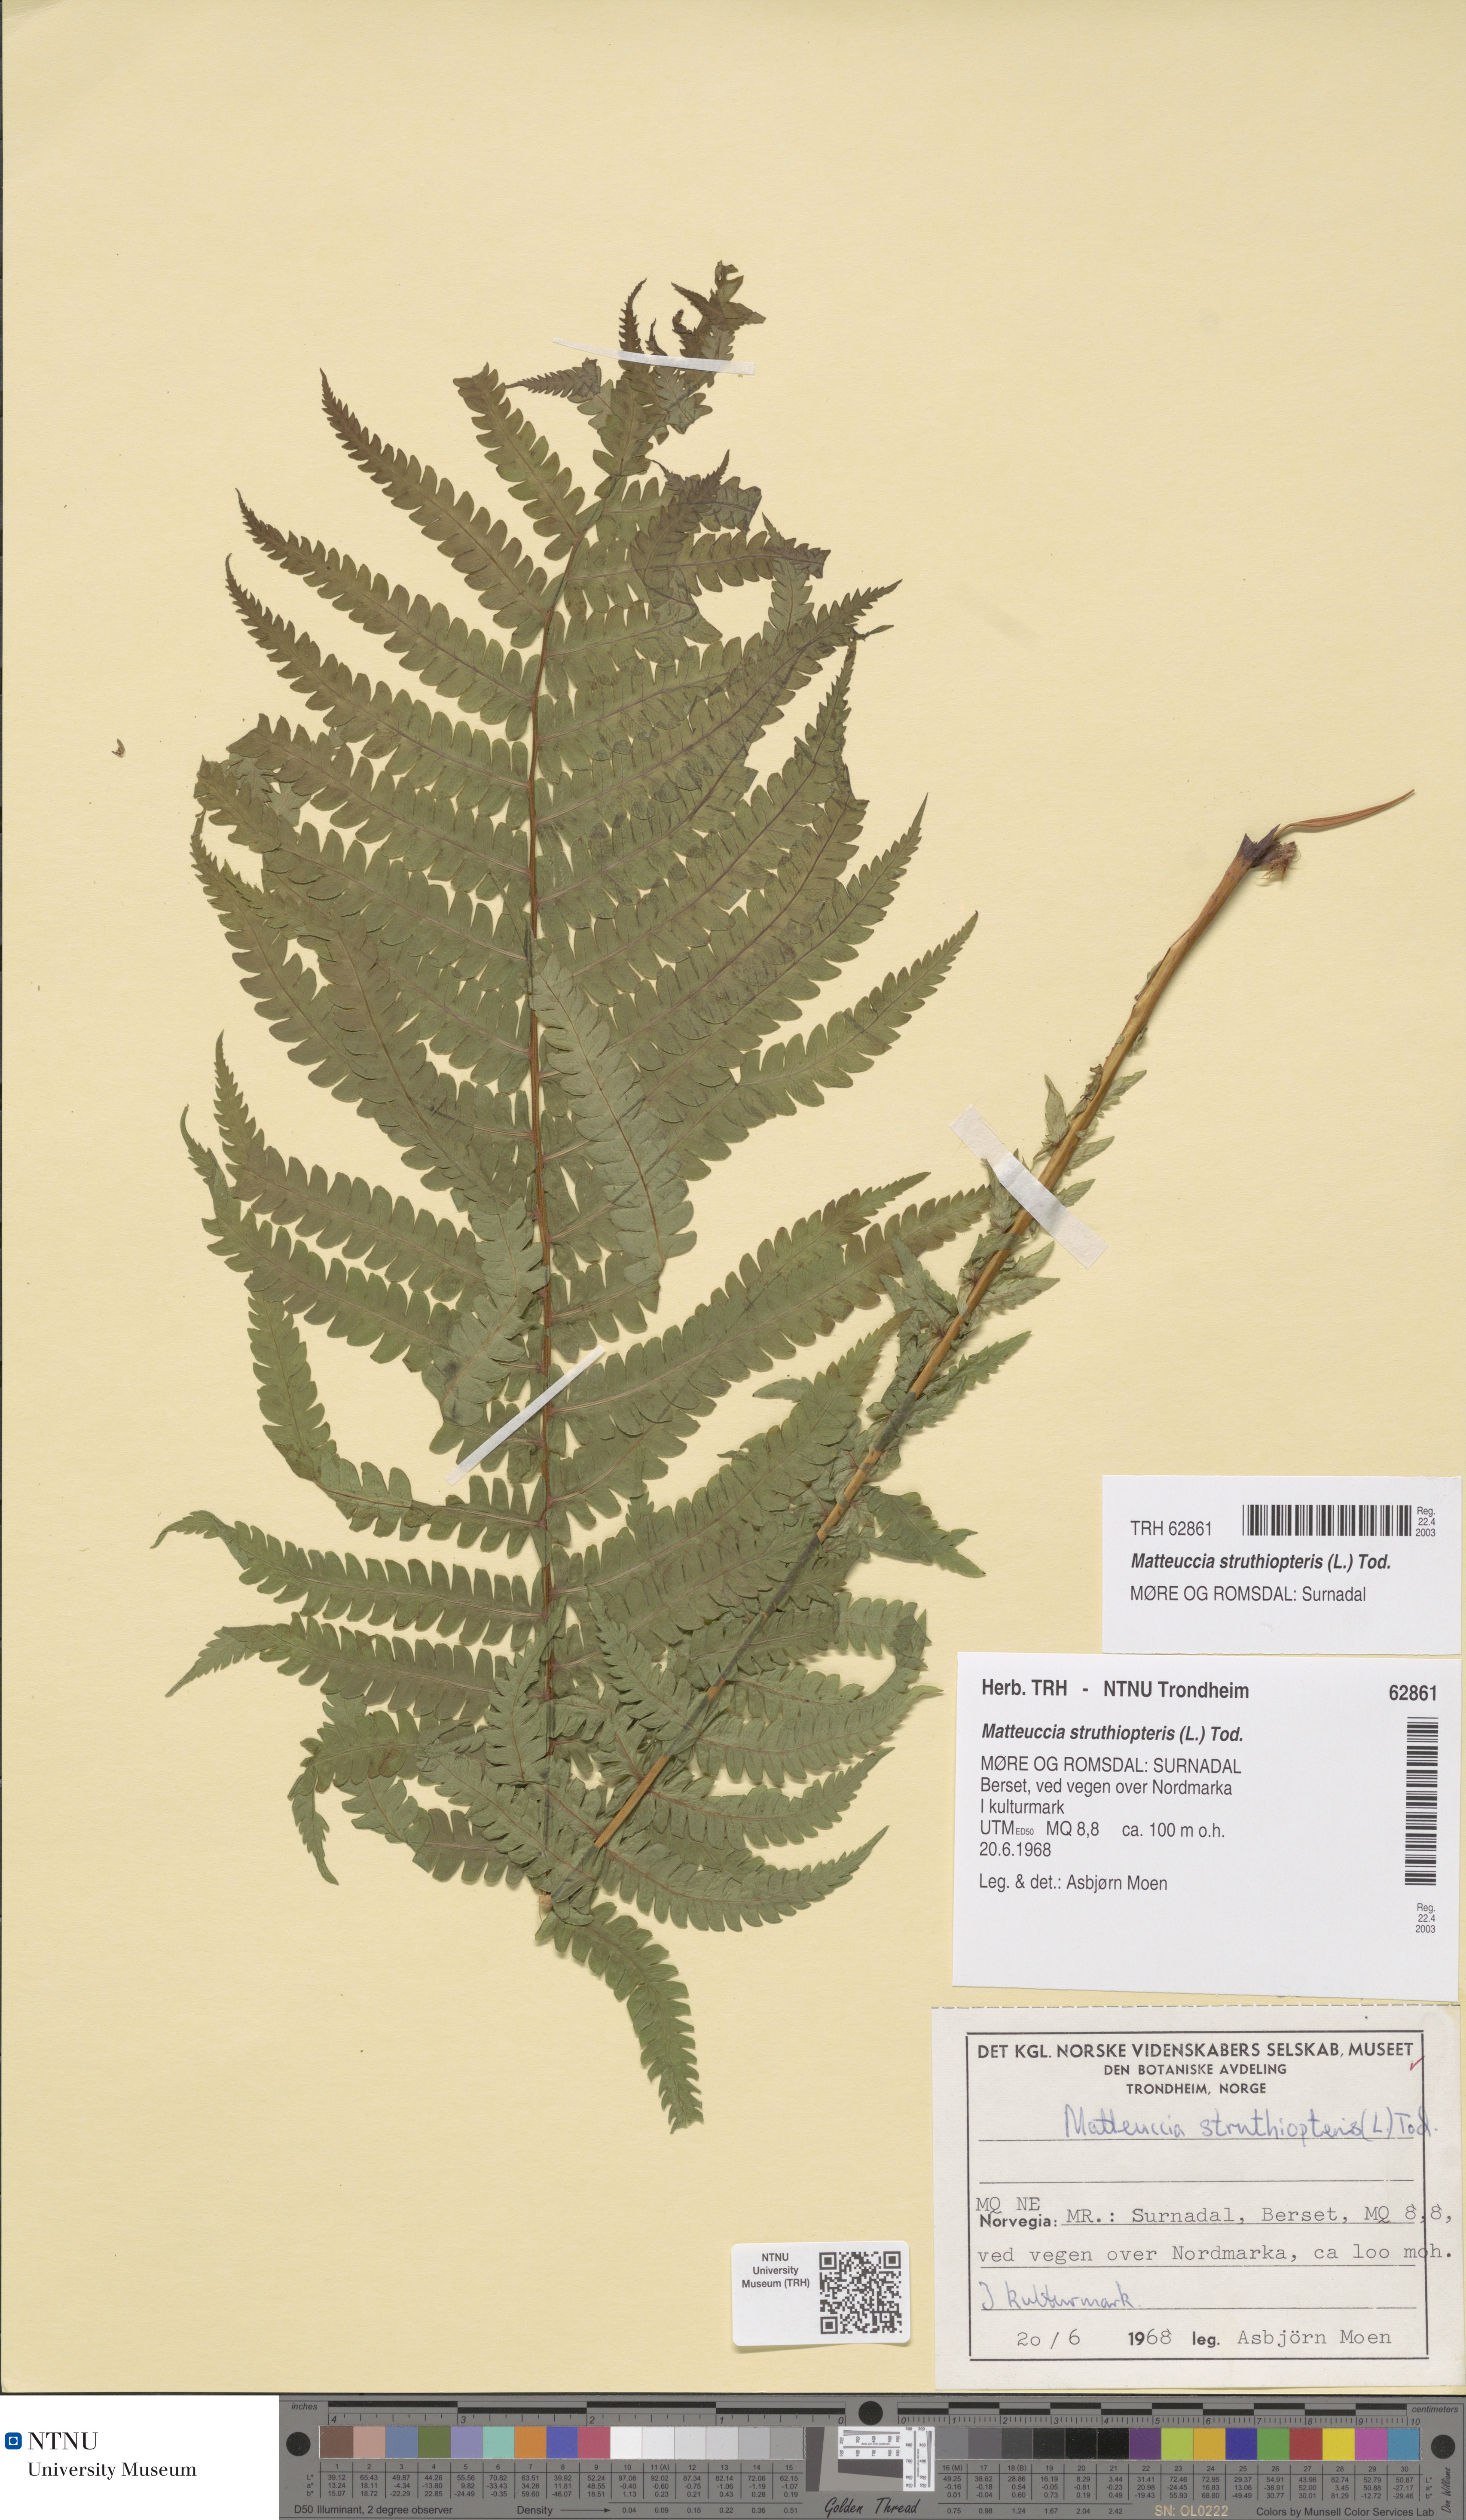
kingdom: Plantae
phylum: Tracheophyta
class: Polypodiopsida
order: Polypodiales
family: Onocleaceae
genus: Matteuccia
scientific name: Matteuccia struthiopteris
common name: Ostrich fern
